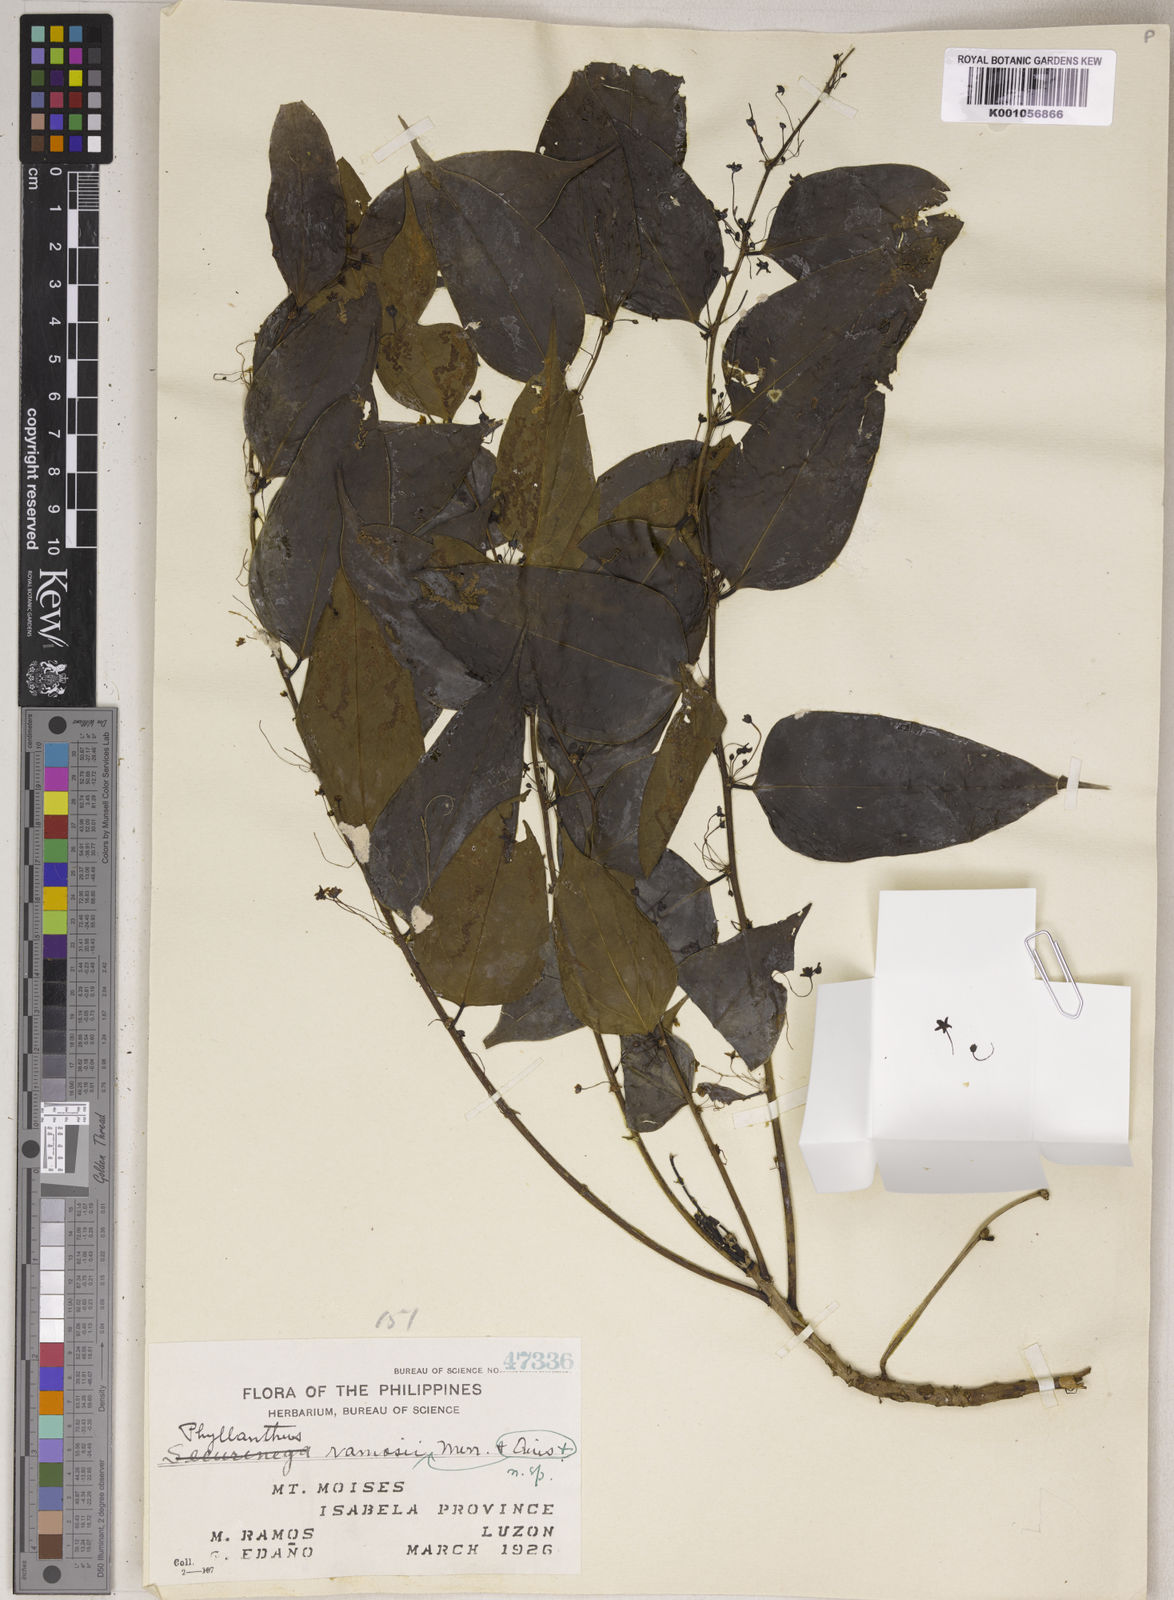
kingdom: Plantae
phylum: Tracheophyta
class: Magnoliopsida
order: Malpighiales
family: Phyllanthaceae
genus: Phyllanthus
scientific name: Phyllanthus ramosii
